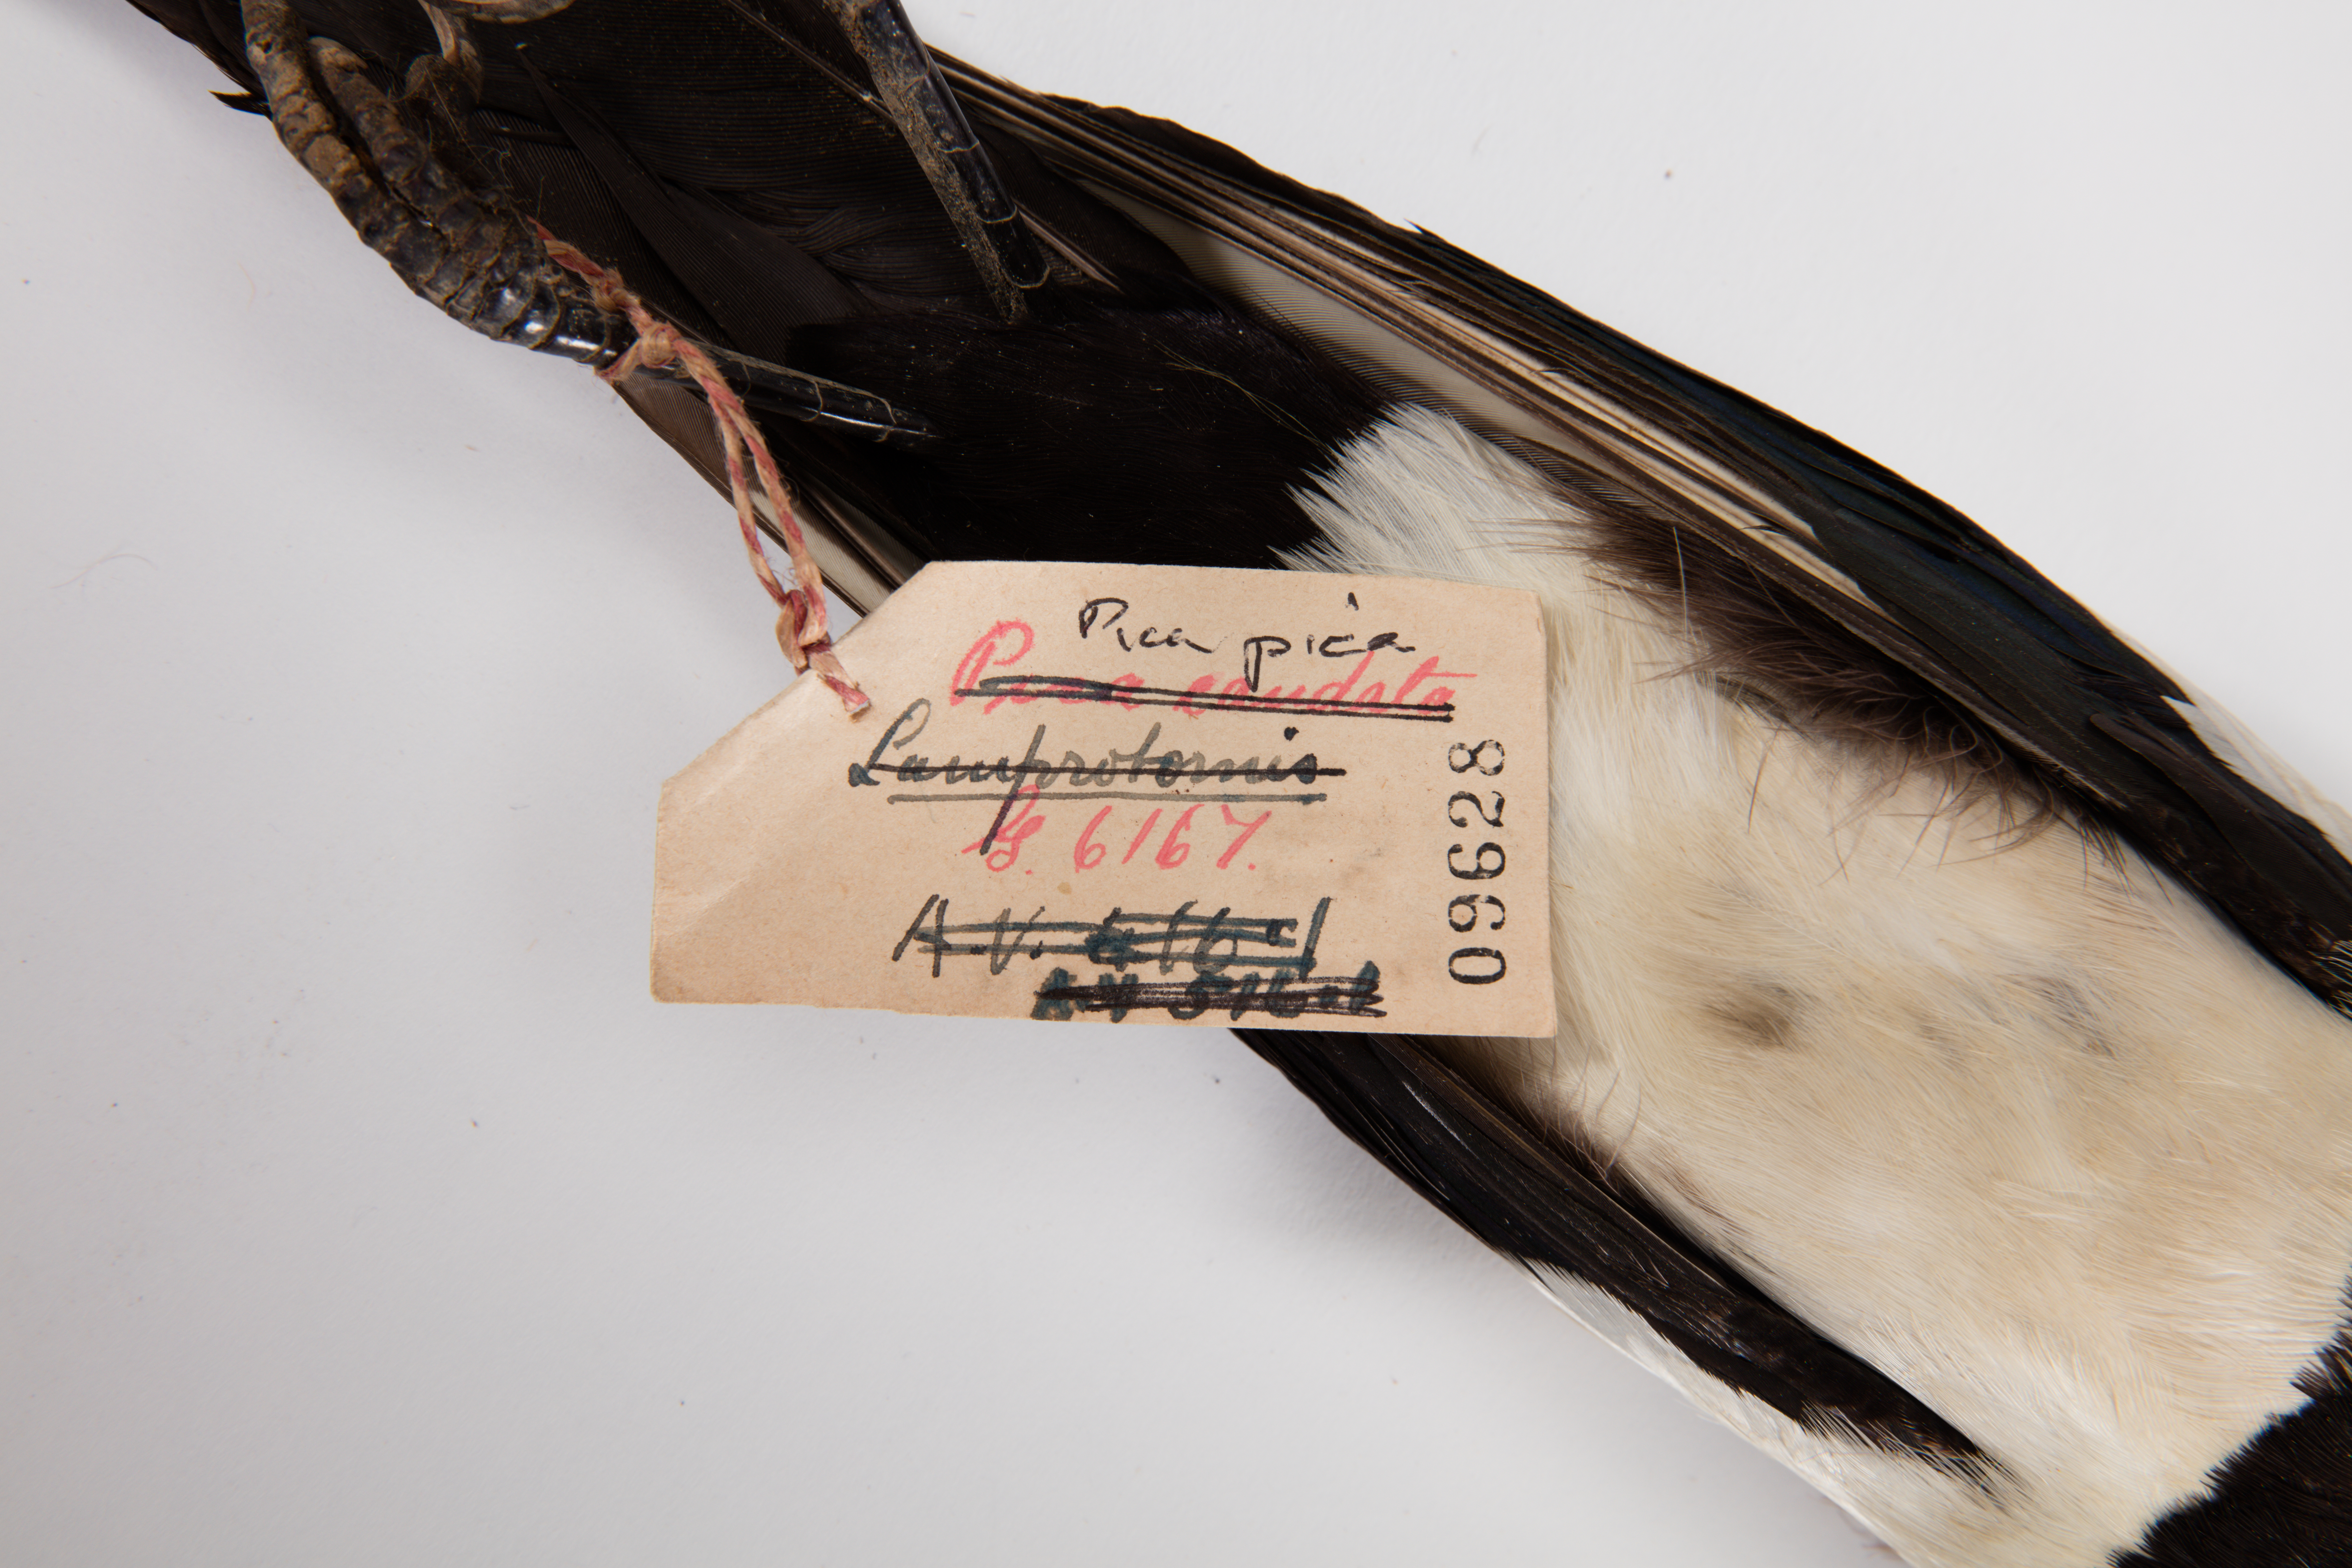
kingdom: Animalia
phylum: Chordata
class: Aves
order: Passeriformes
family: Corvidae
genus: Pica
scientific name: Pica pica
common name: Eurasian magpie
